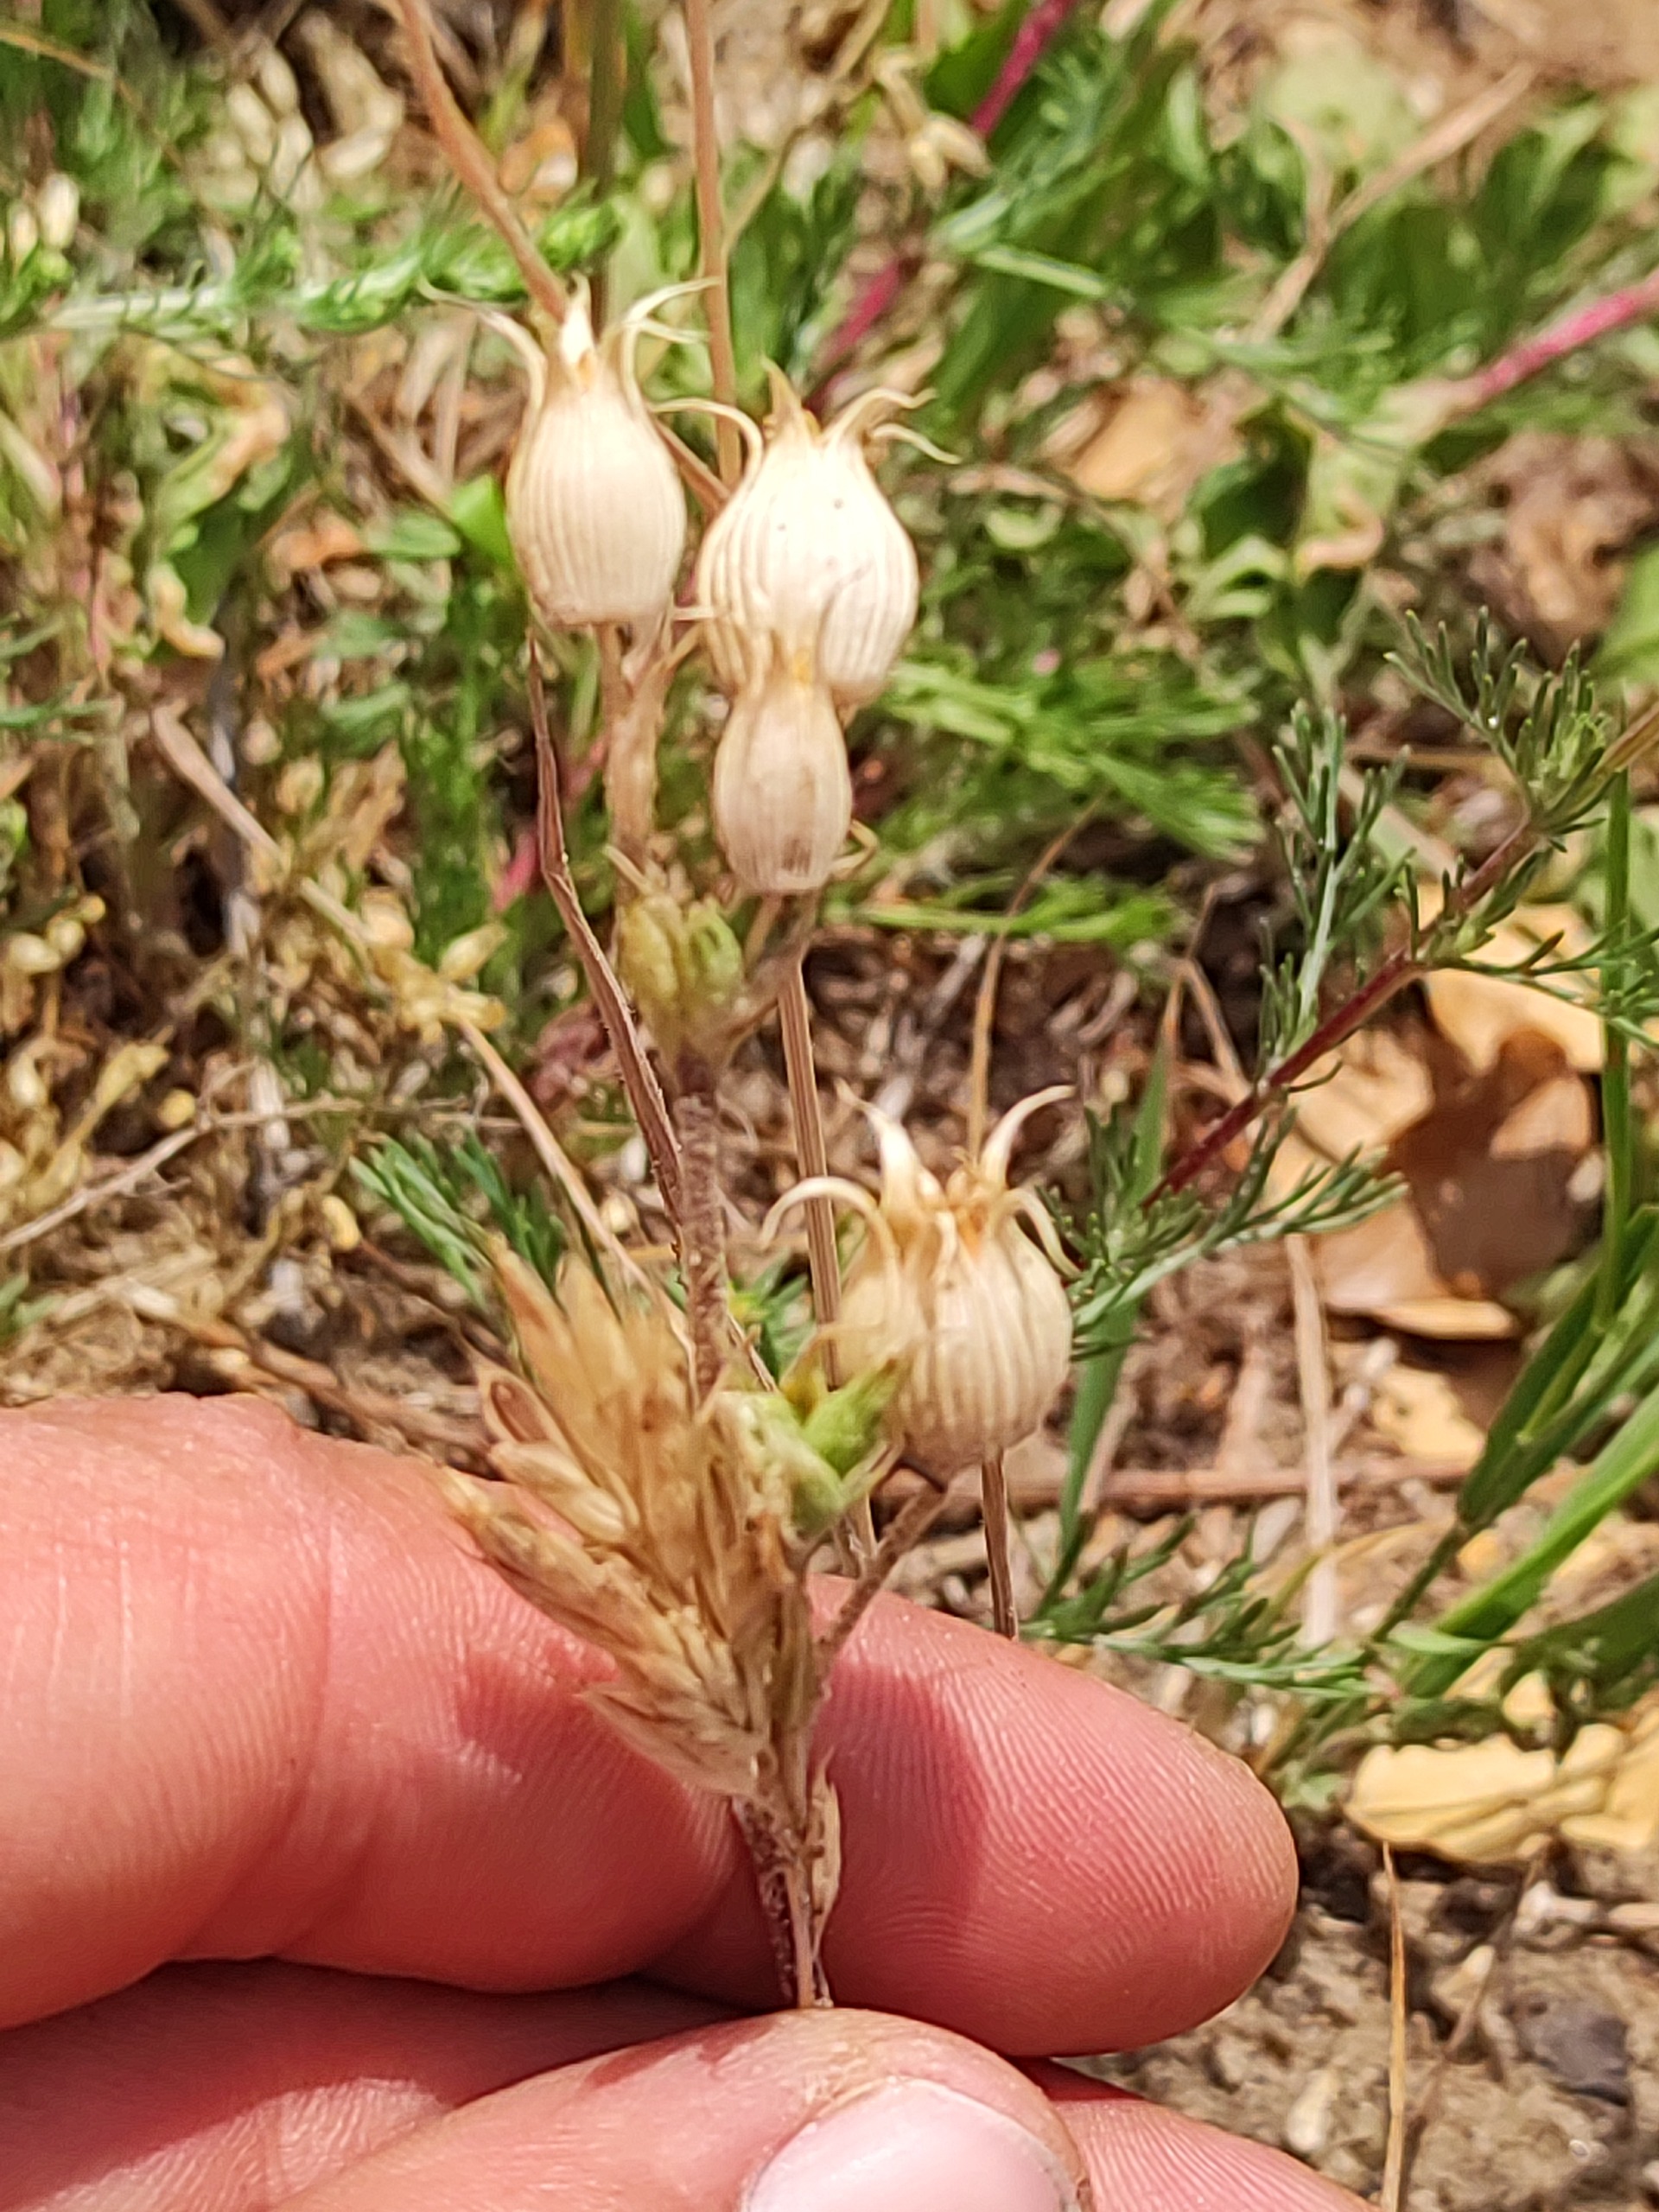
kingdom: Plantae
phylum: Tracheophyta
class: Magnoliopsida
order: Caryophyllales
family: Caryophyllaceae
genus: Silene
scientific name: Silene conica
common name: Kegle-limurt
